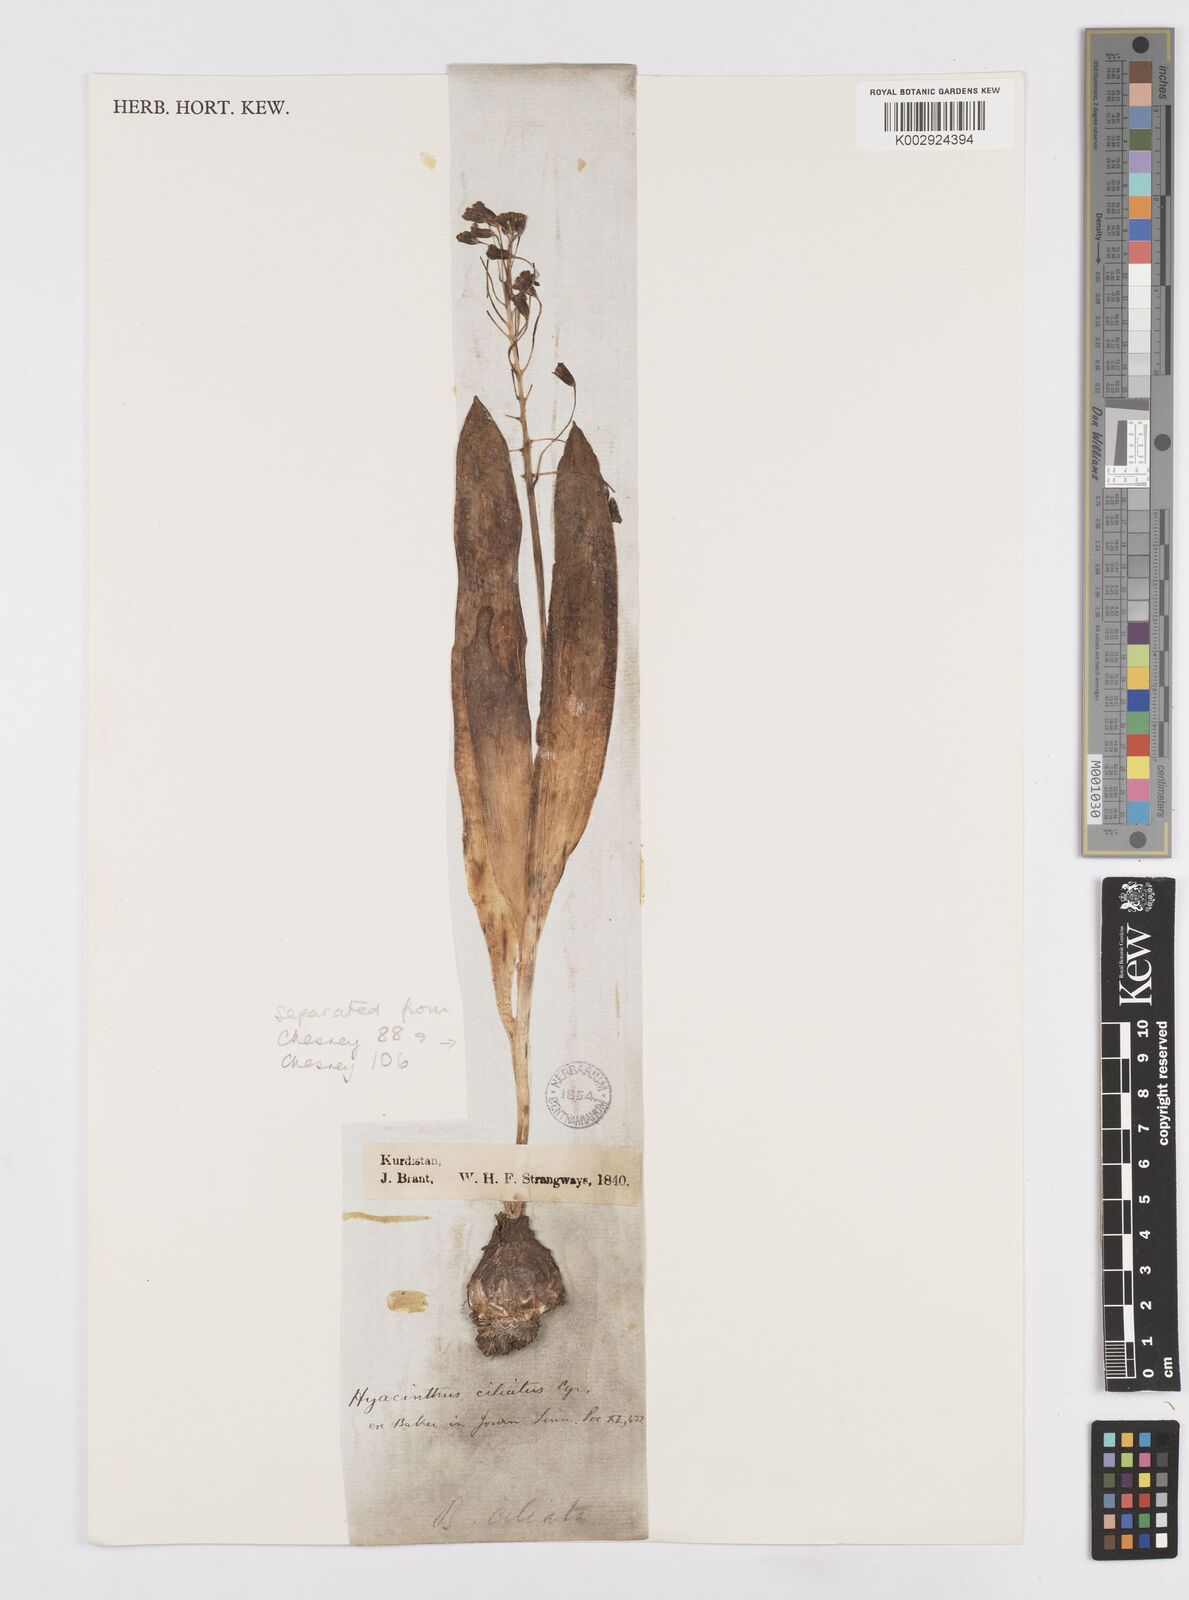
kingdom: Plantae
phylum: Tracheophyta
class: Liliopsida
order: Asparagales
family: Asparagaceae
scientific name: Asparagaceae
